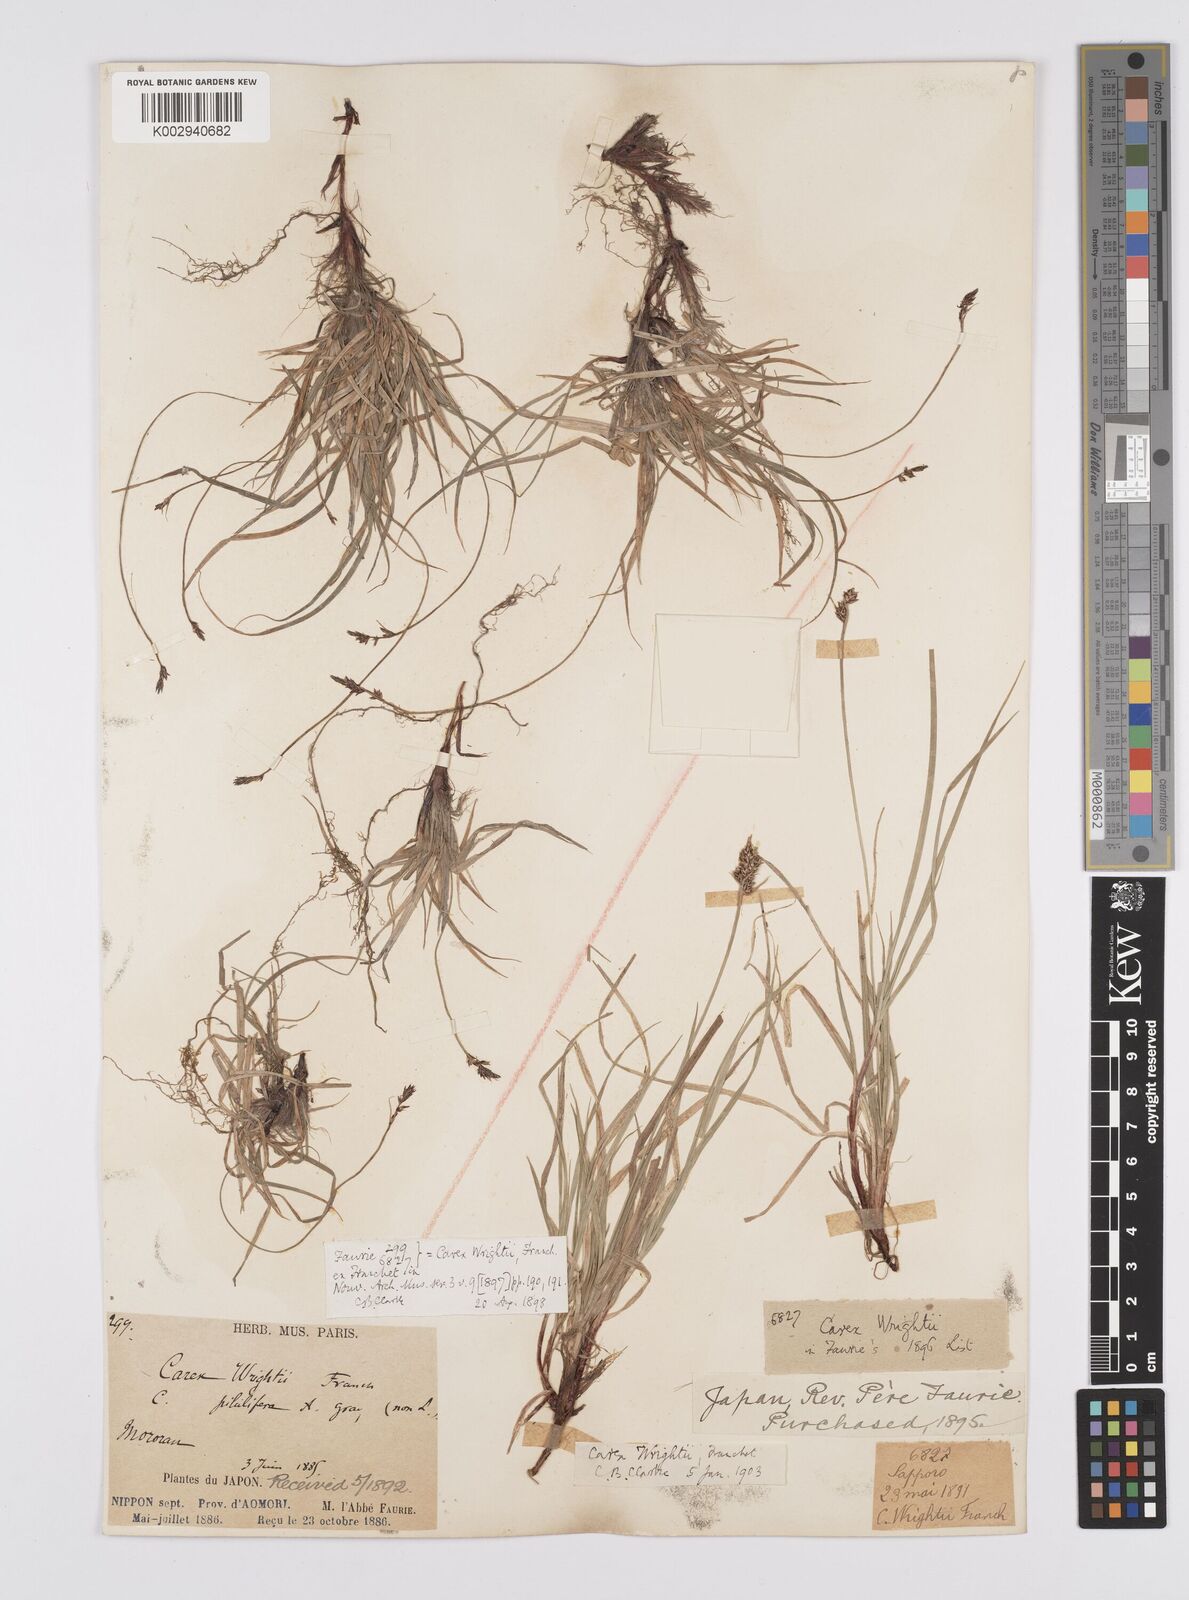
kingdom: Plantae
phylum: Tracheophyta
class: Liliopsida
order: Poales
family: Cyperaceae
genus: Carex
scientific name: Carex oxyandra
